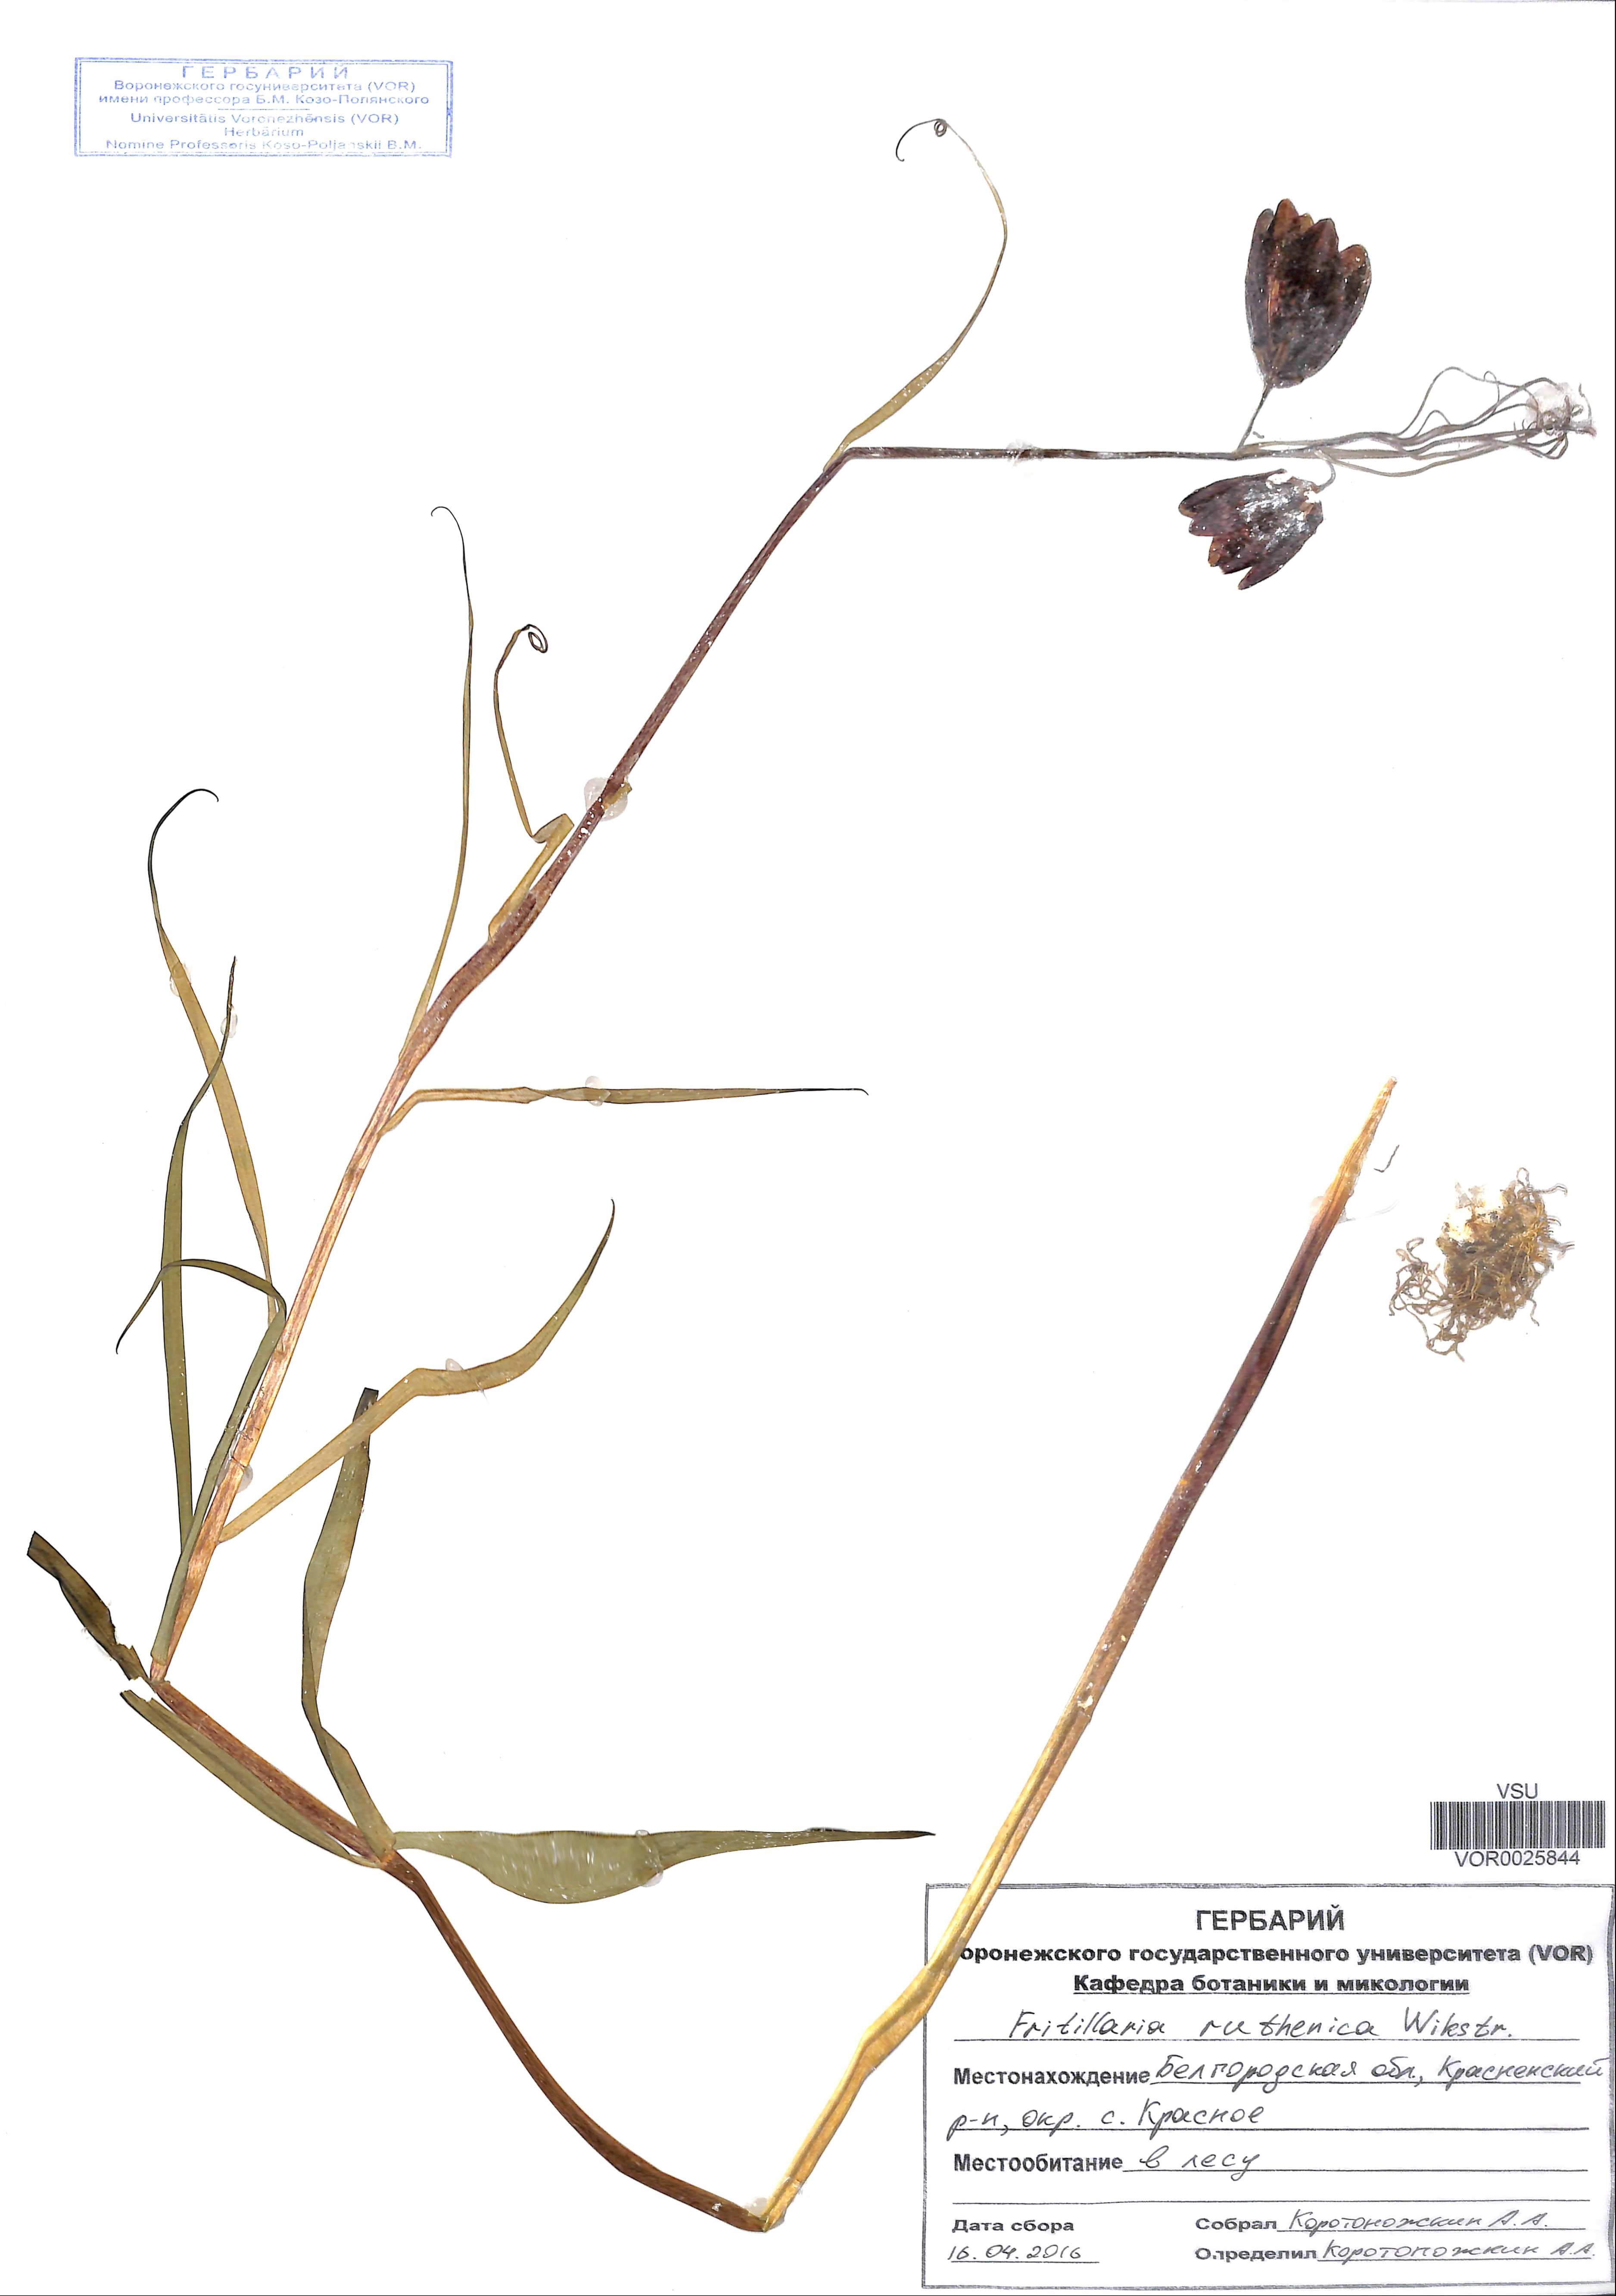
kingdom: Plantae
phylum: Tracheophyta
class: Liliopsida
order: Liliales
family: Liliaceae
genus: Fritillaria
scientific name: Fritillaria ruthenica
